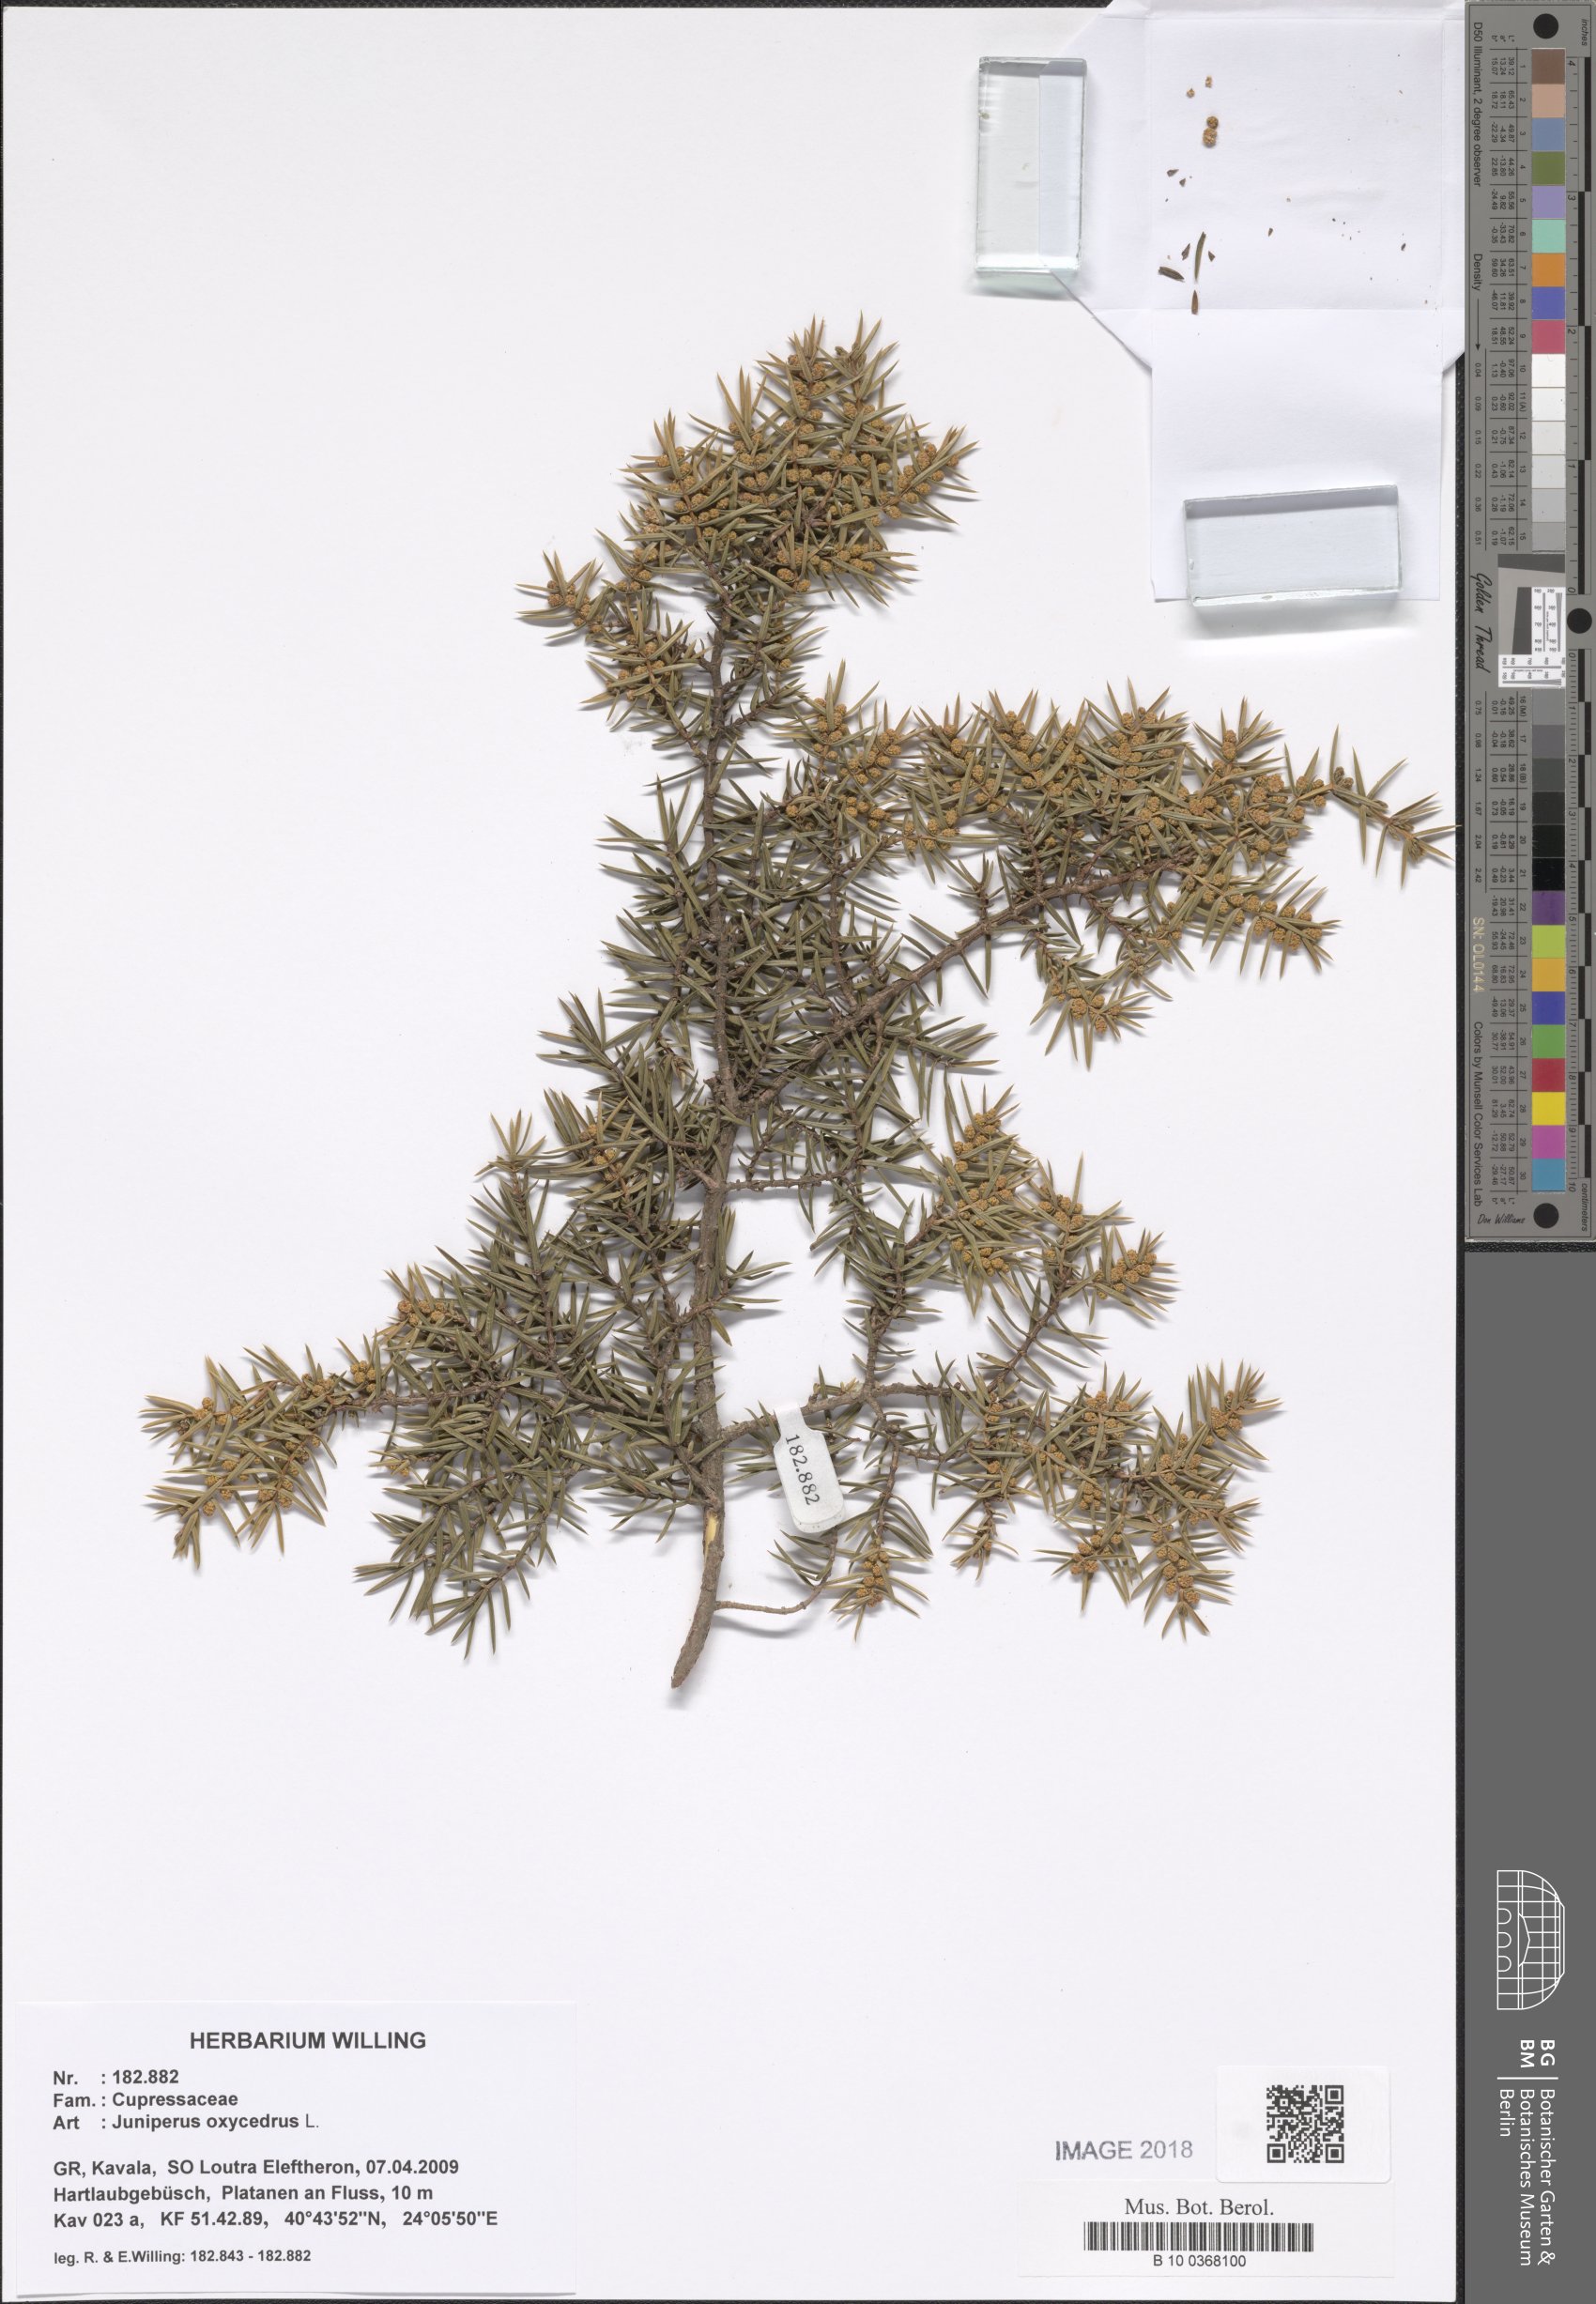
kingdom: Plantae
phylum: Tracheophyta
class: Pinopsida
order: Pinales
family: Cupressaceae
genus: Juniperus
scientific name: Juniperus
